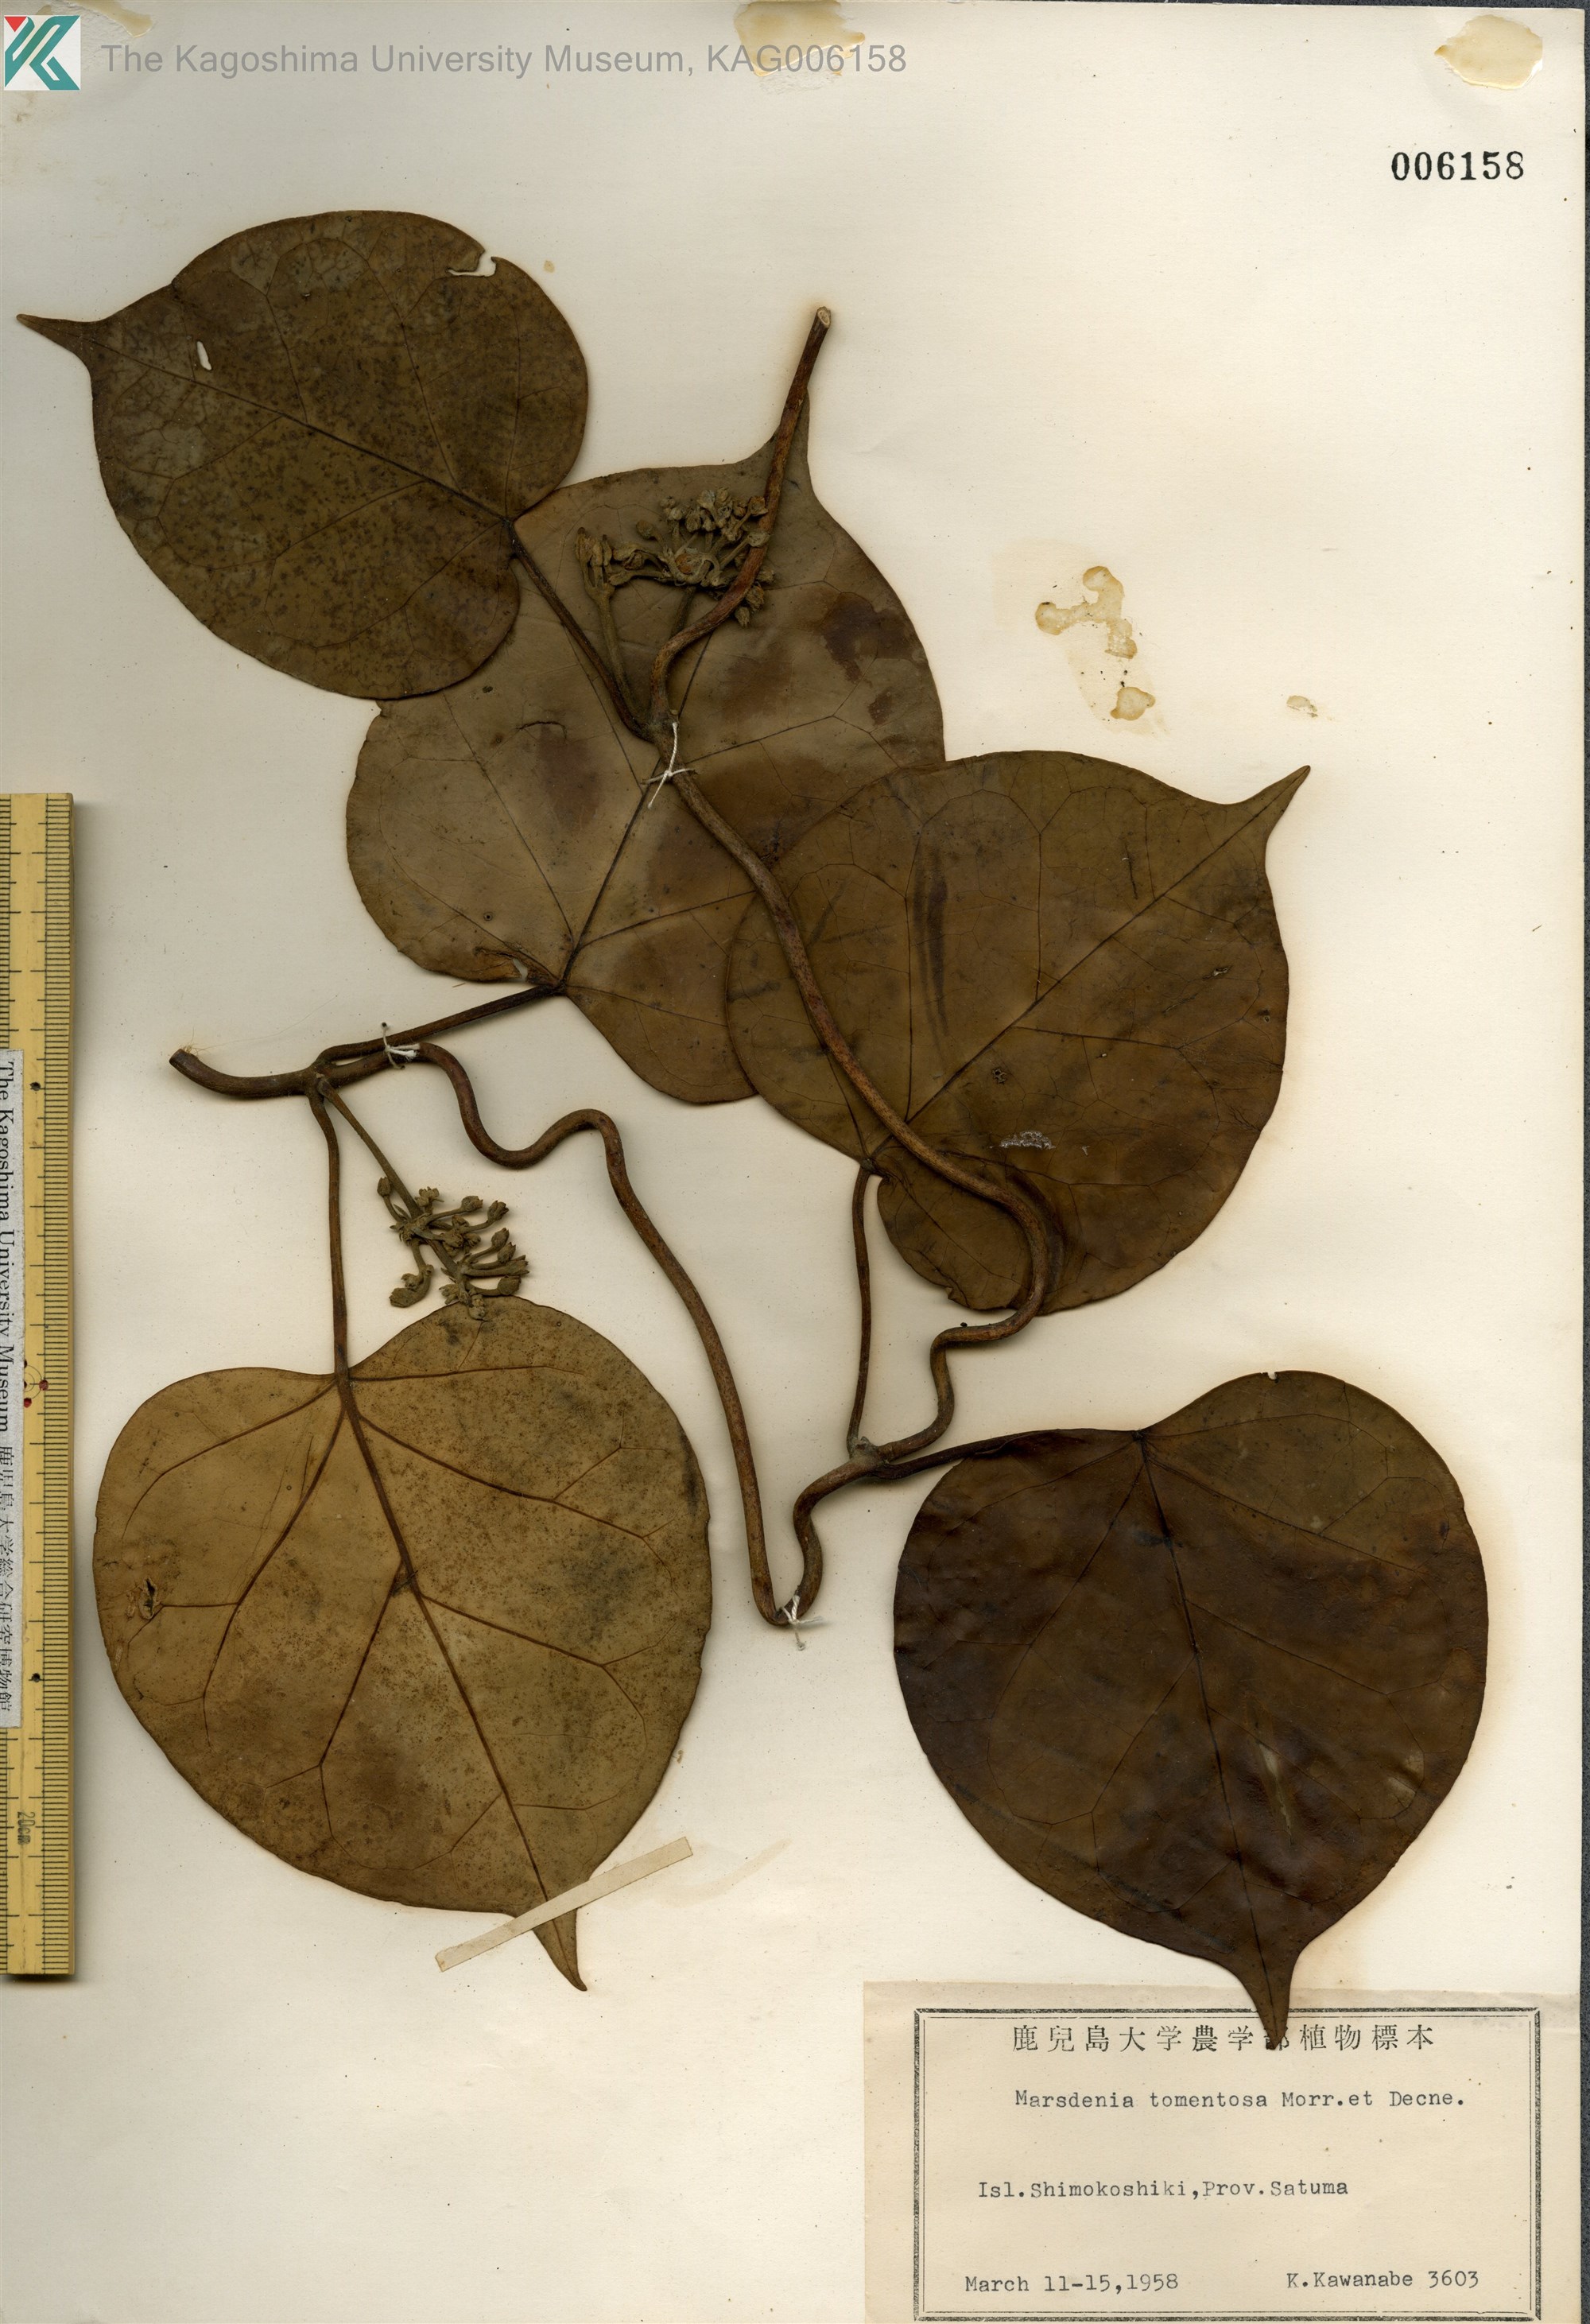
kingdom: Plantae
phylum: Tracheophyta
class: Magnoliopsida
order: Gentianales
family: Apocynaceae
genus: Sinomarsdenia
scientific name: Sinomarsdenia tomentosa
